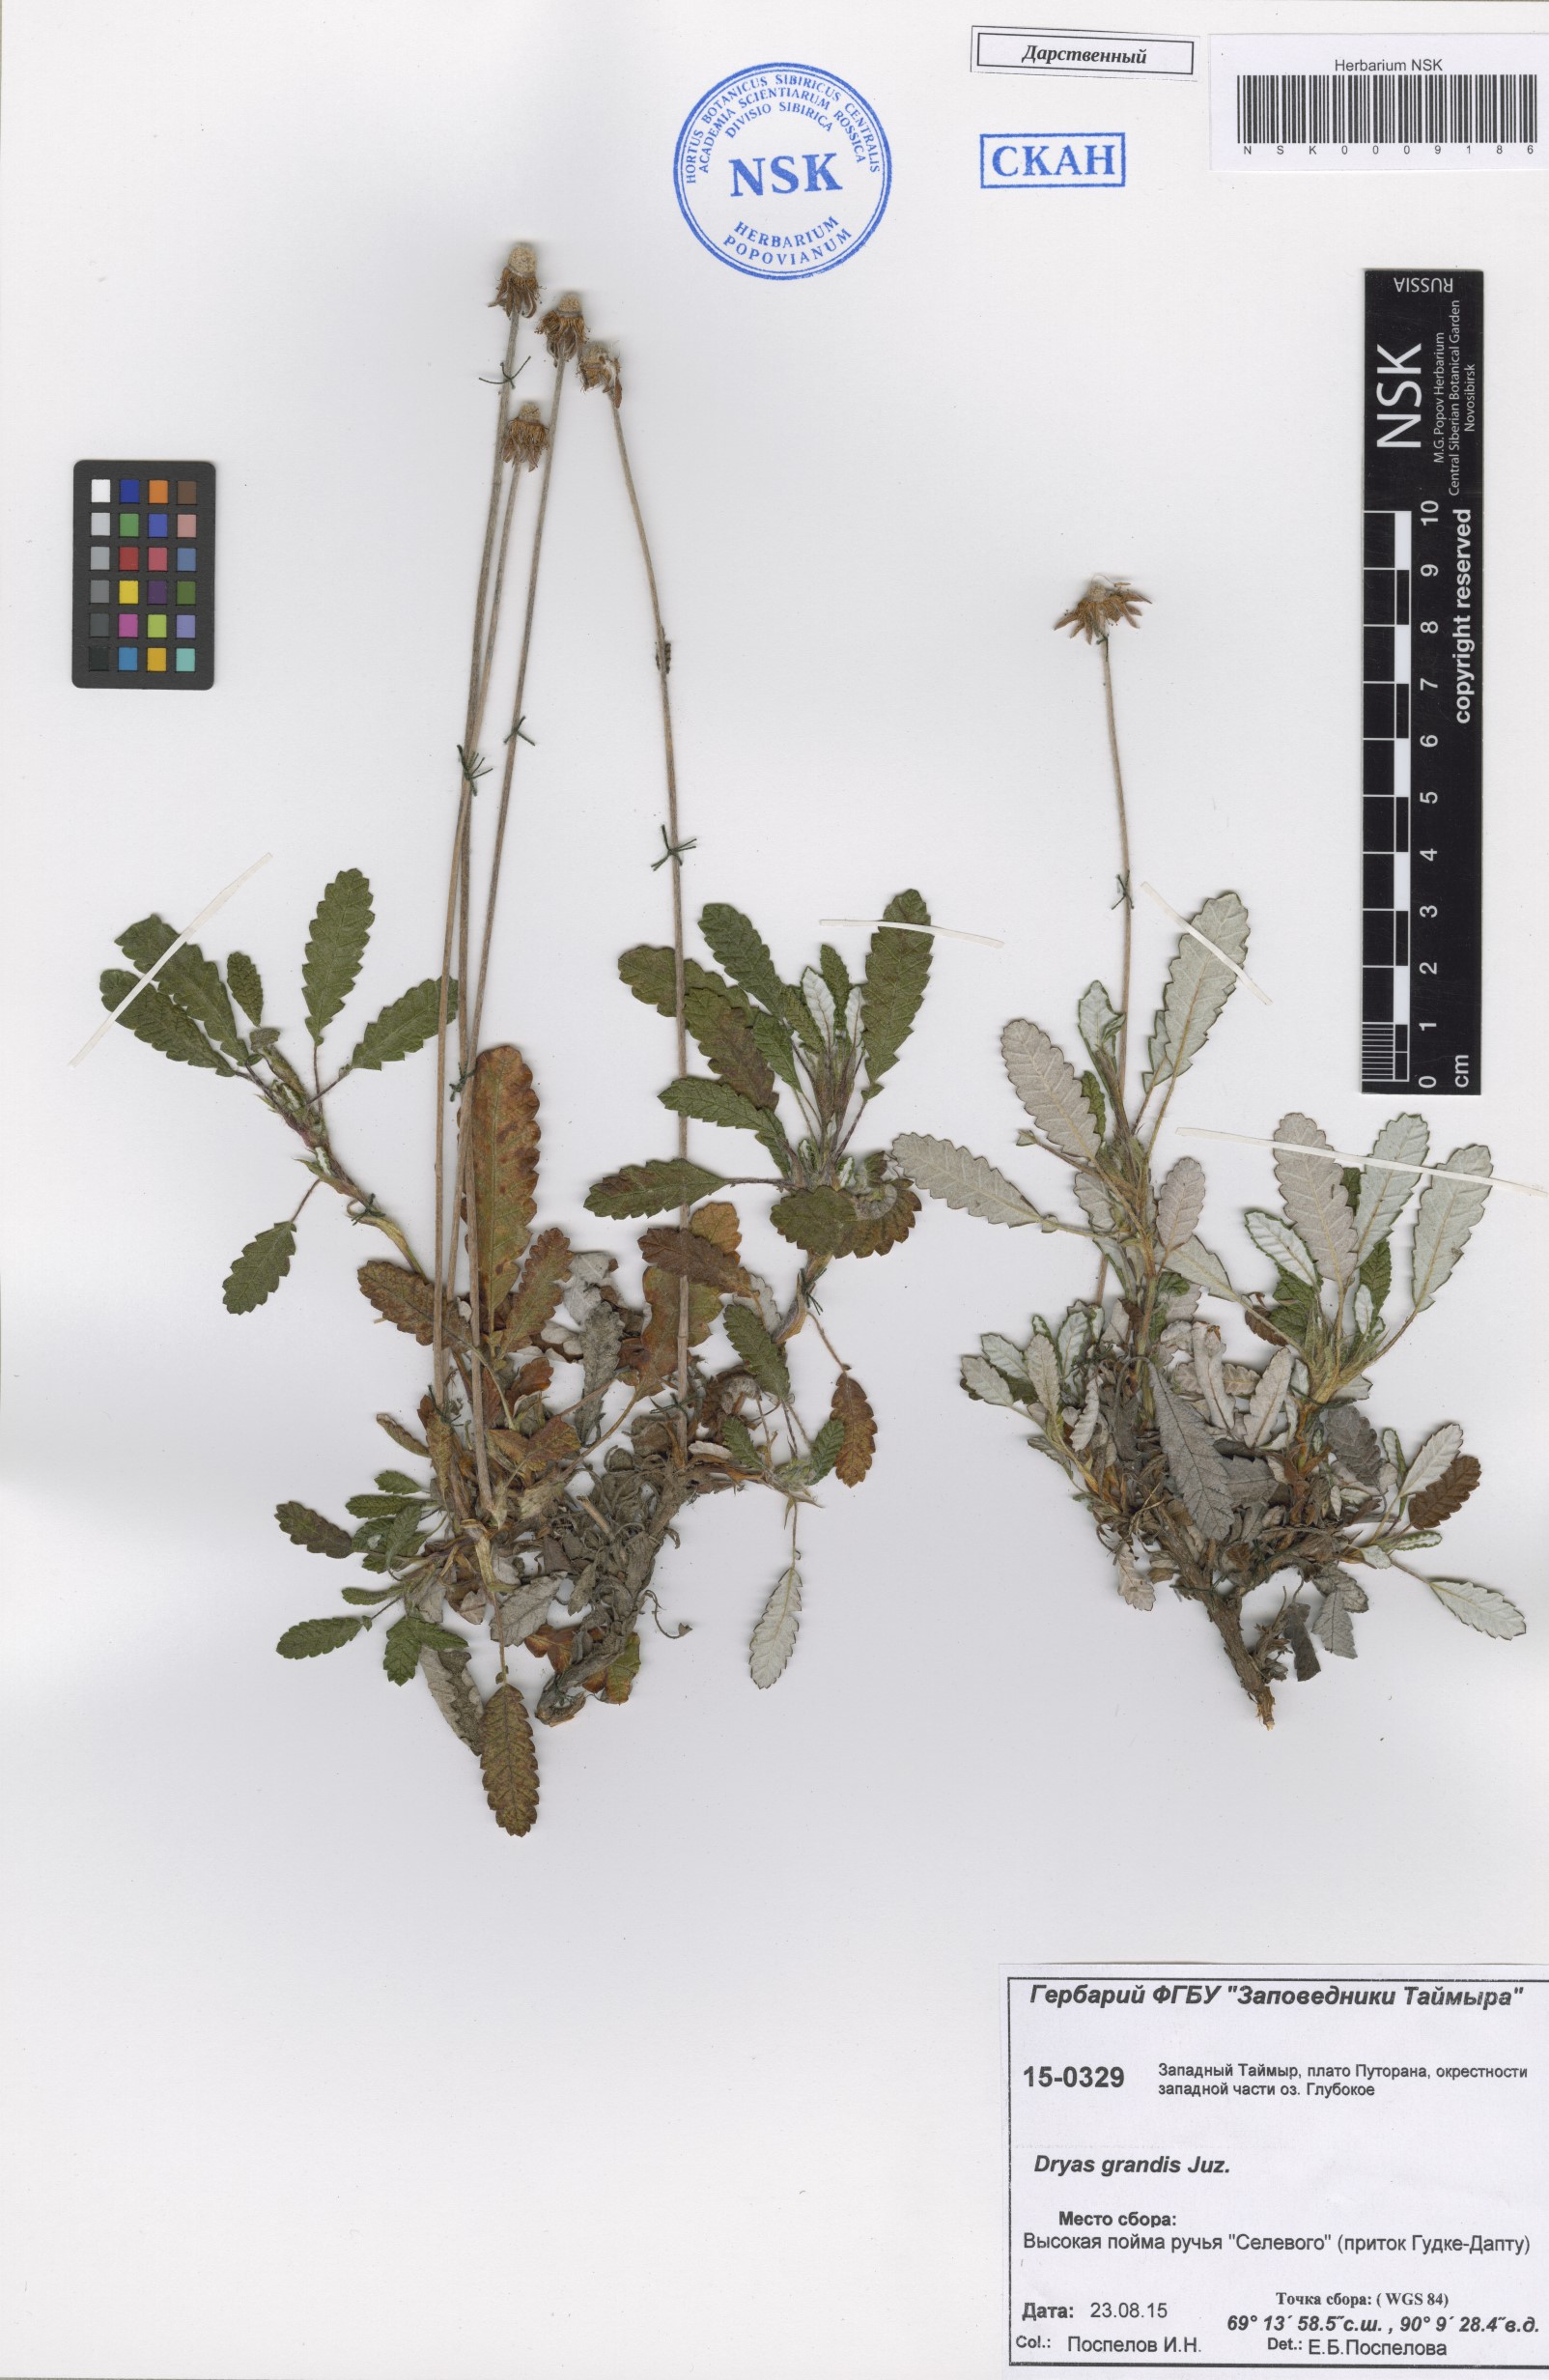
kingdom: Plantae
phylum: Tracheophyta
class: Magnoliopsida
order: Rosales
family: Rosaceae
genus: Dryas
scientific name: Dryas grandis
